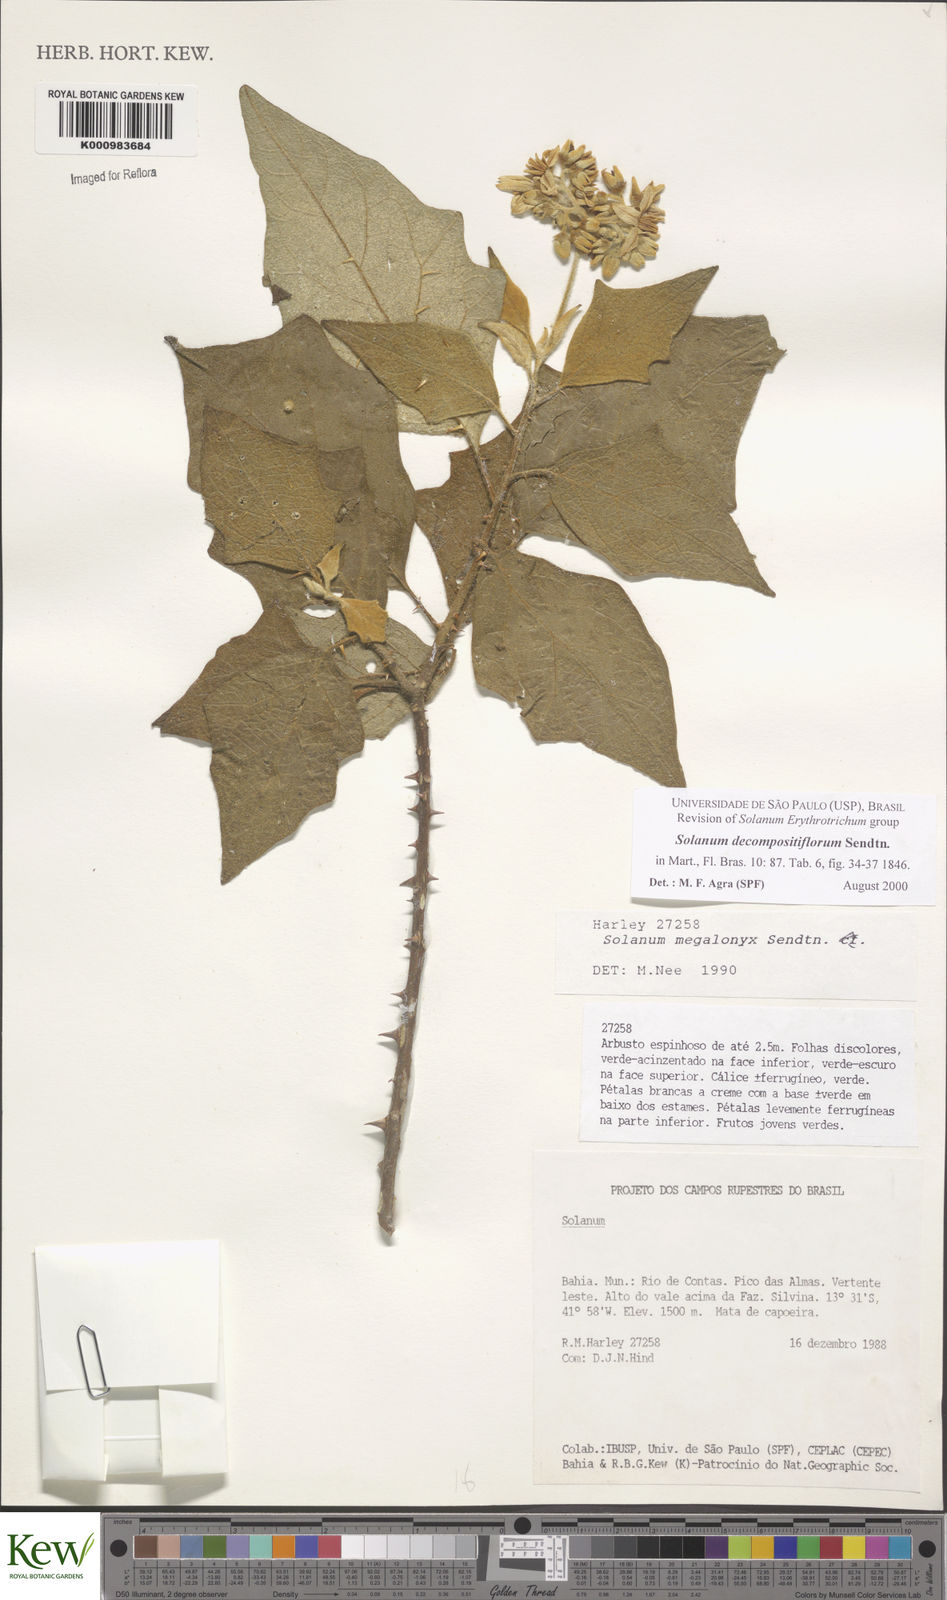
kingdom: Plantae
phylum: Tracheophyta
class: Magnoliopsida
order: Solanales
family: Solanaceae
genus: Solanum
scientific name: Solanum decompositiflorum
